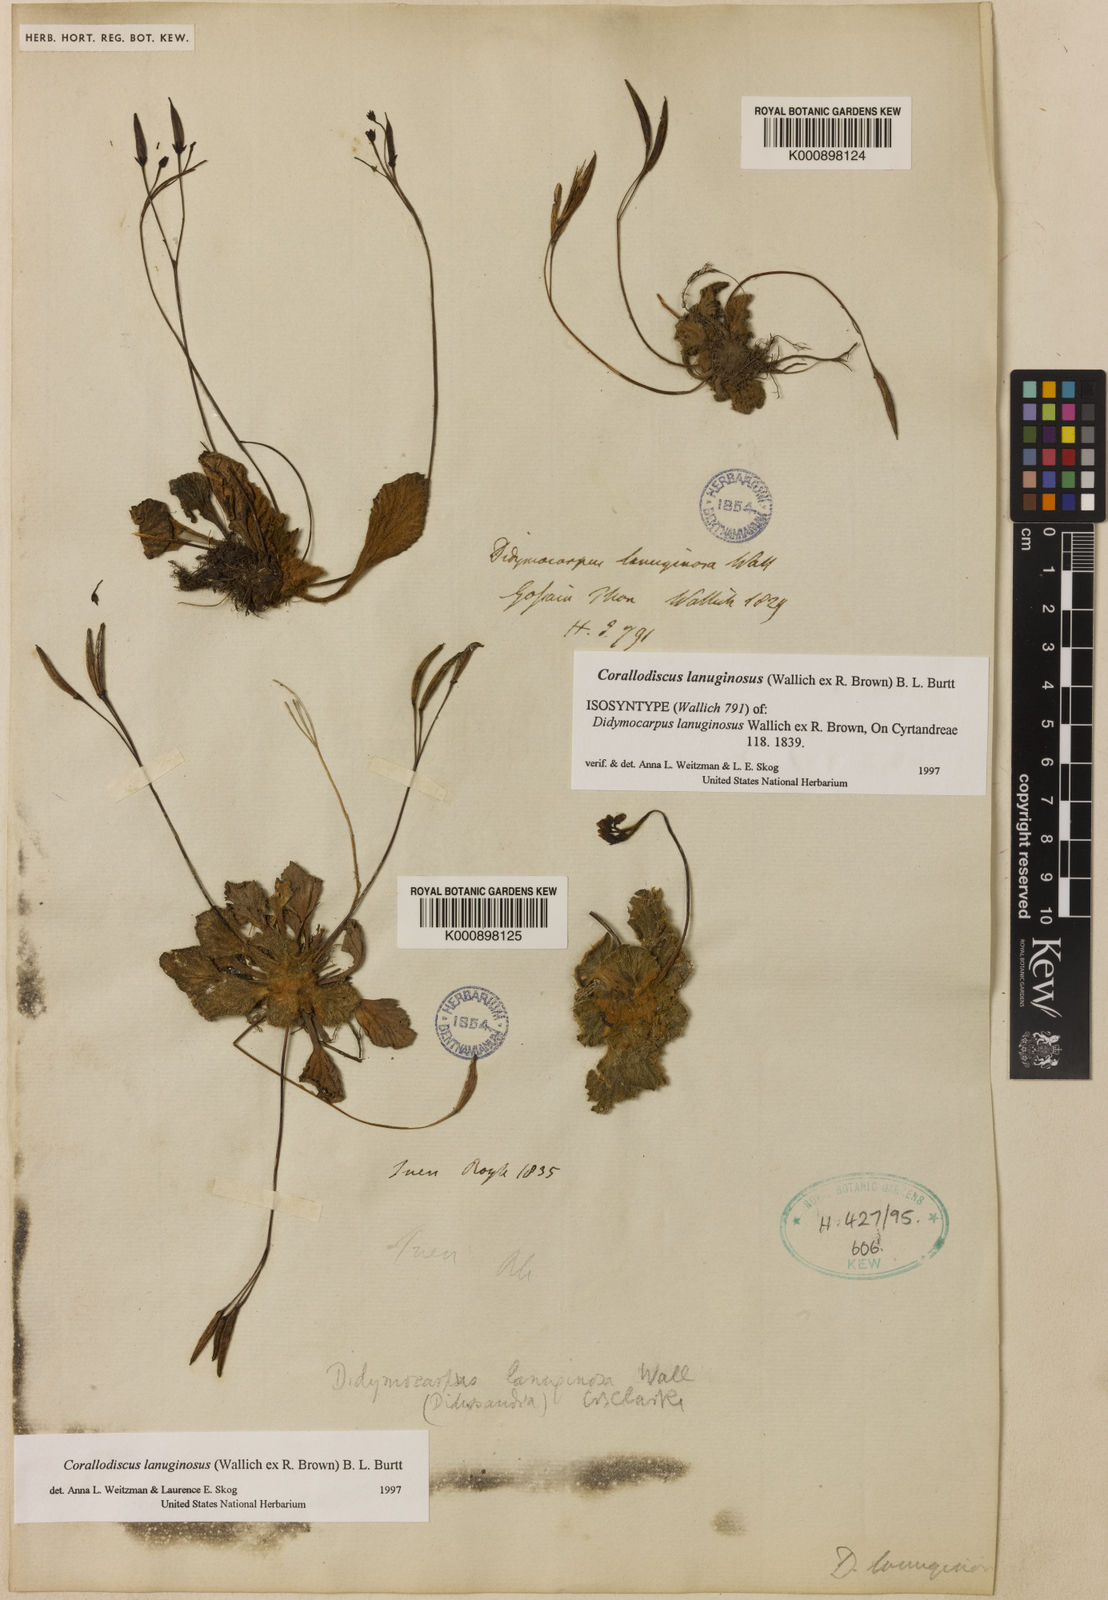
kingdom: Plantae
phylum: Tracheophyta
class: Magnoliopsida
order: Lamiales
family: Gesneriaceae
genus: Corallodiscus
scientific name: Corallodiscus lanuginosus
